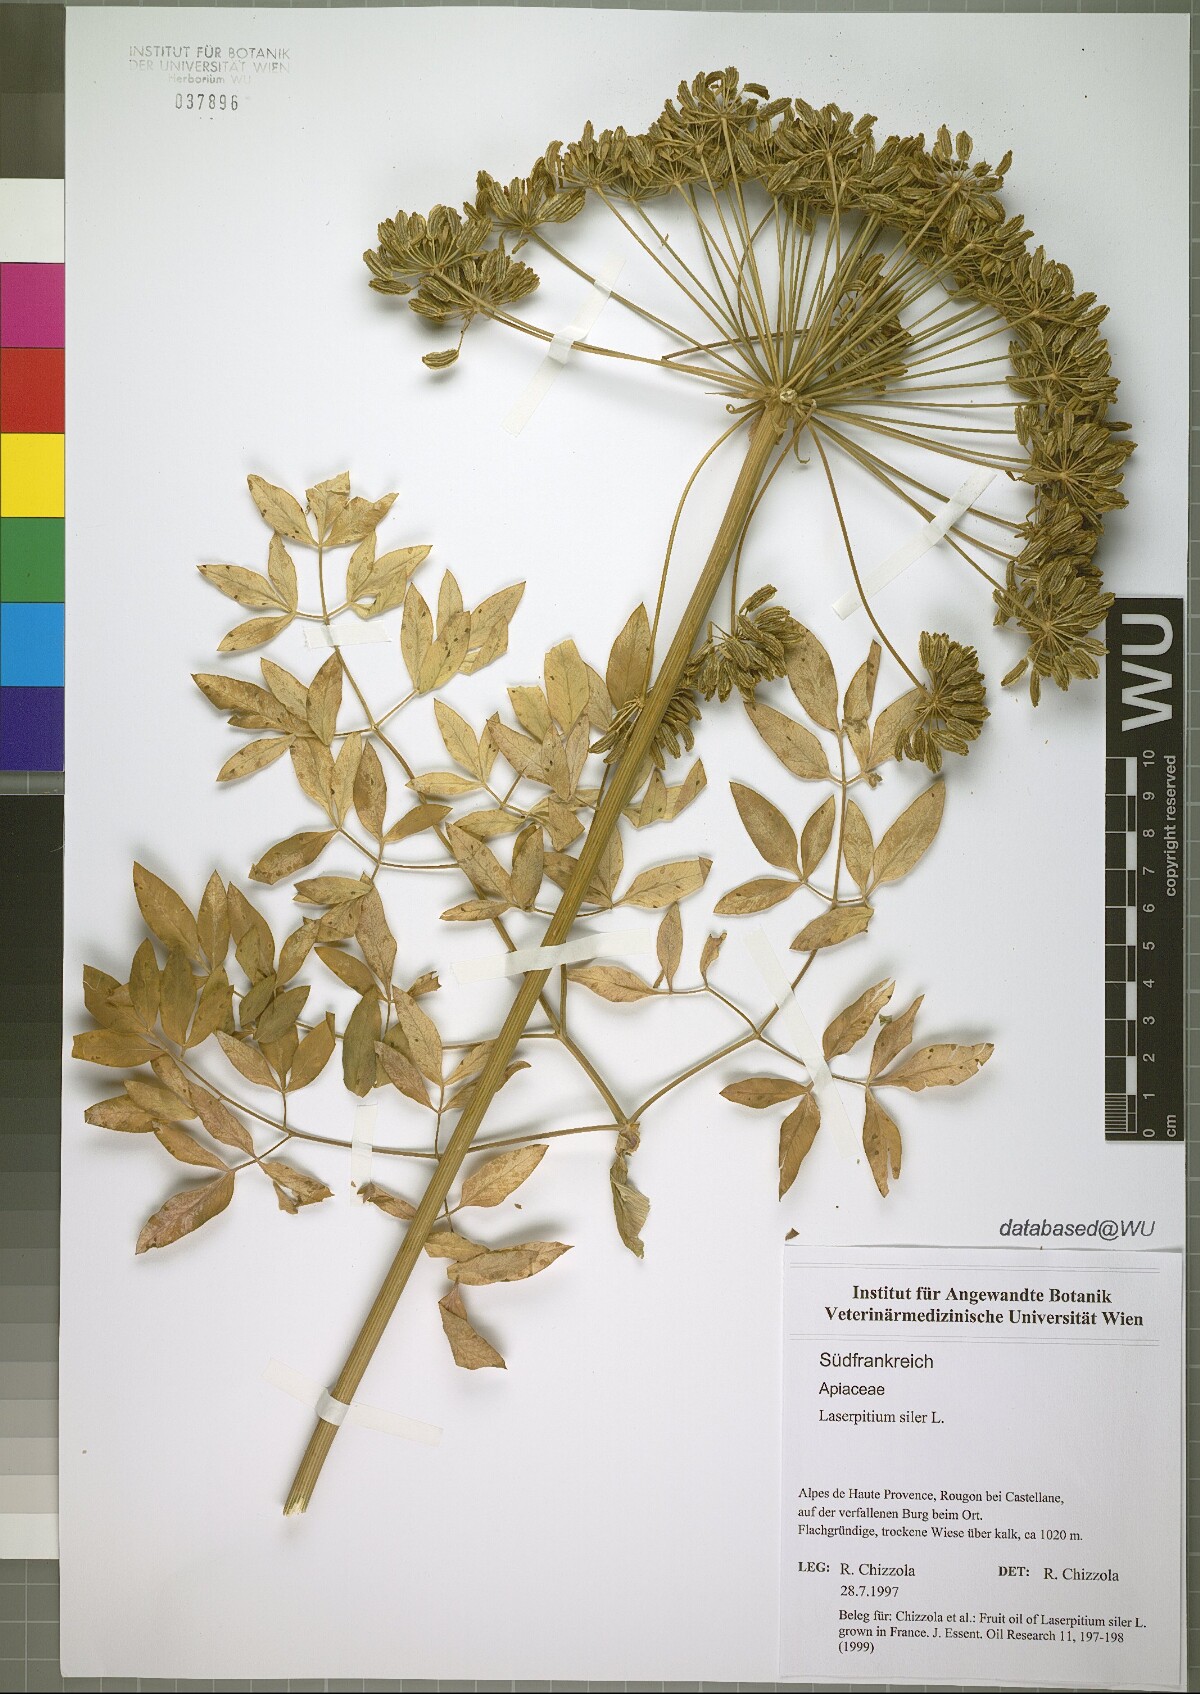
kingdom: Plantae
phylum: Tracheophyta
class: Magnoliopsida
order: Apiales
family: Apiaceae
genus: Siler
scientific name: Siler montanum
